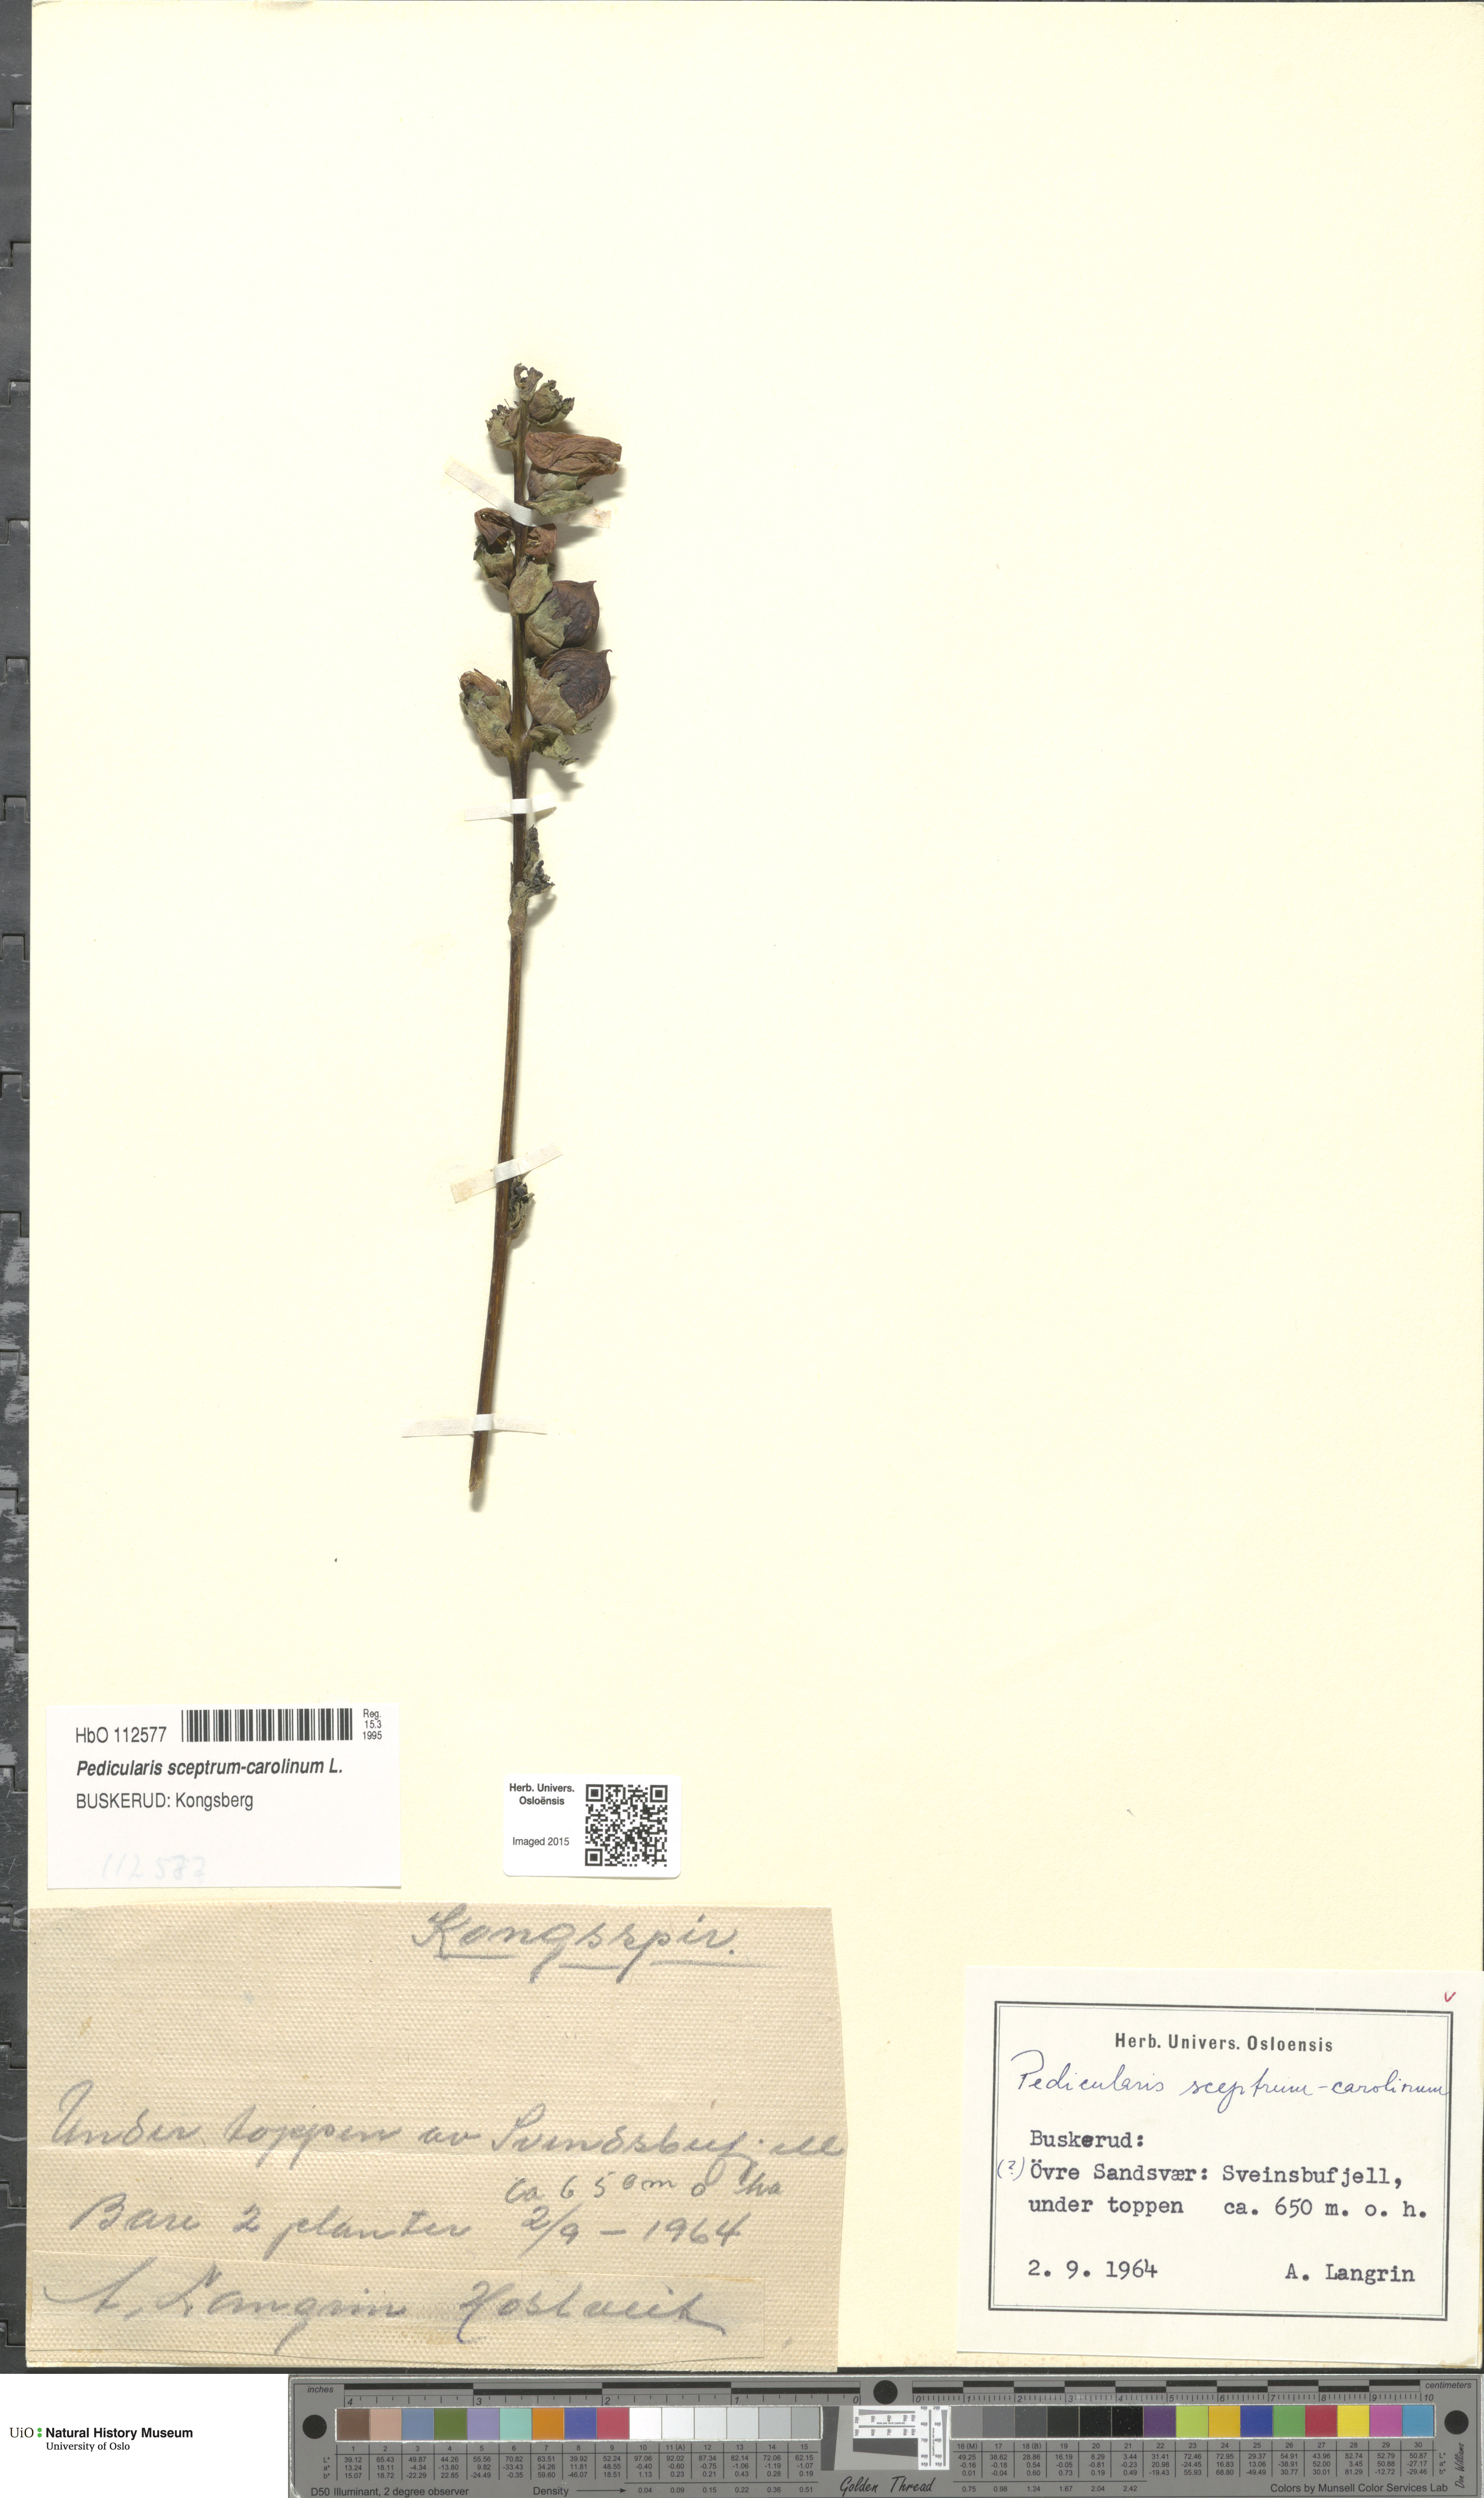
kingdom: Plantae
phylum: Tracheophyta
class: Magnoliopsida
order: Lamiales
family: Orobanchaceae
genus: Pedicularis
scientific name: Pedicularis sceptrum-carolinum
